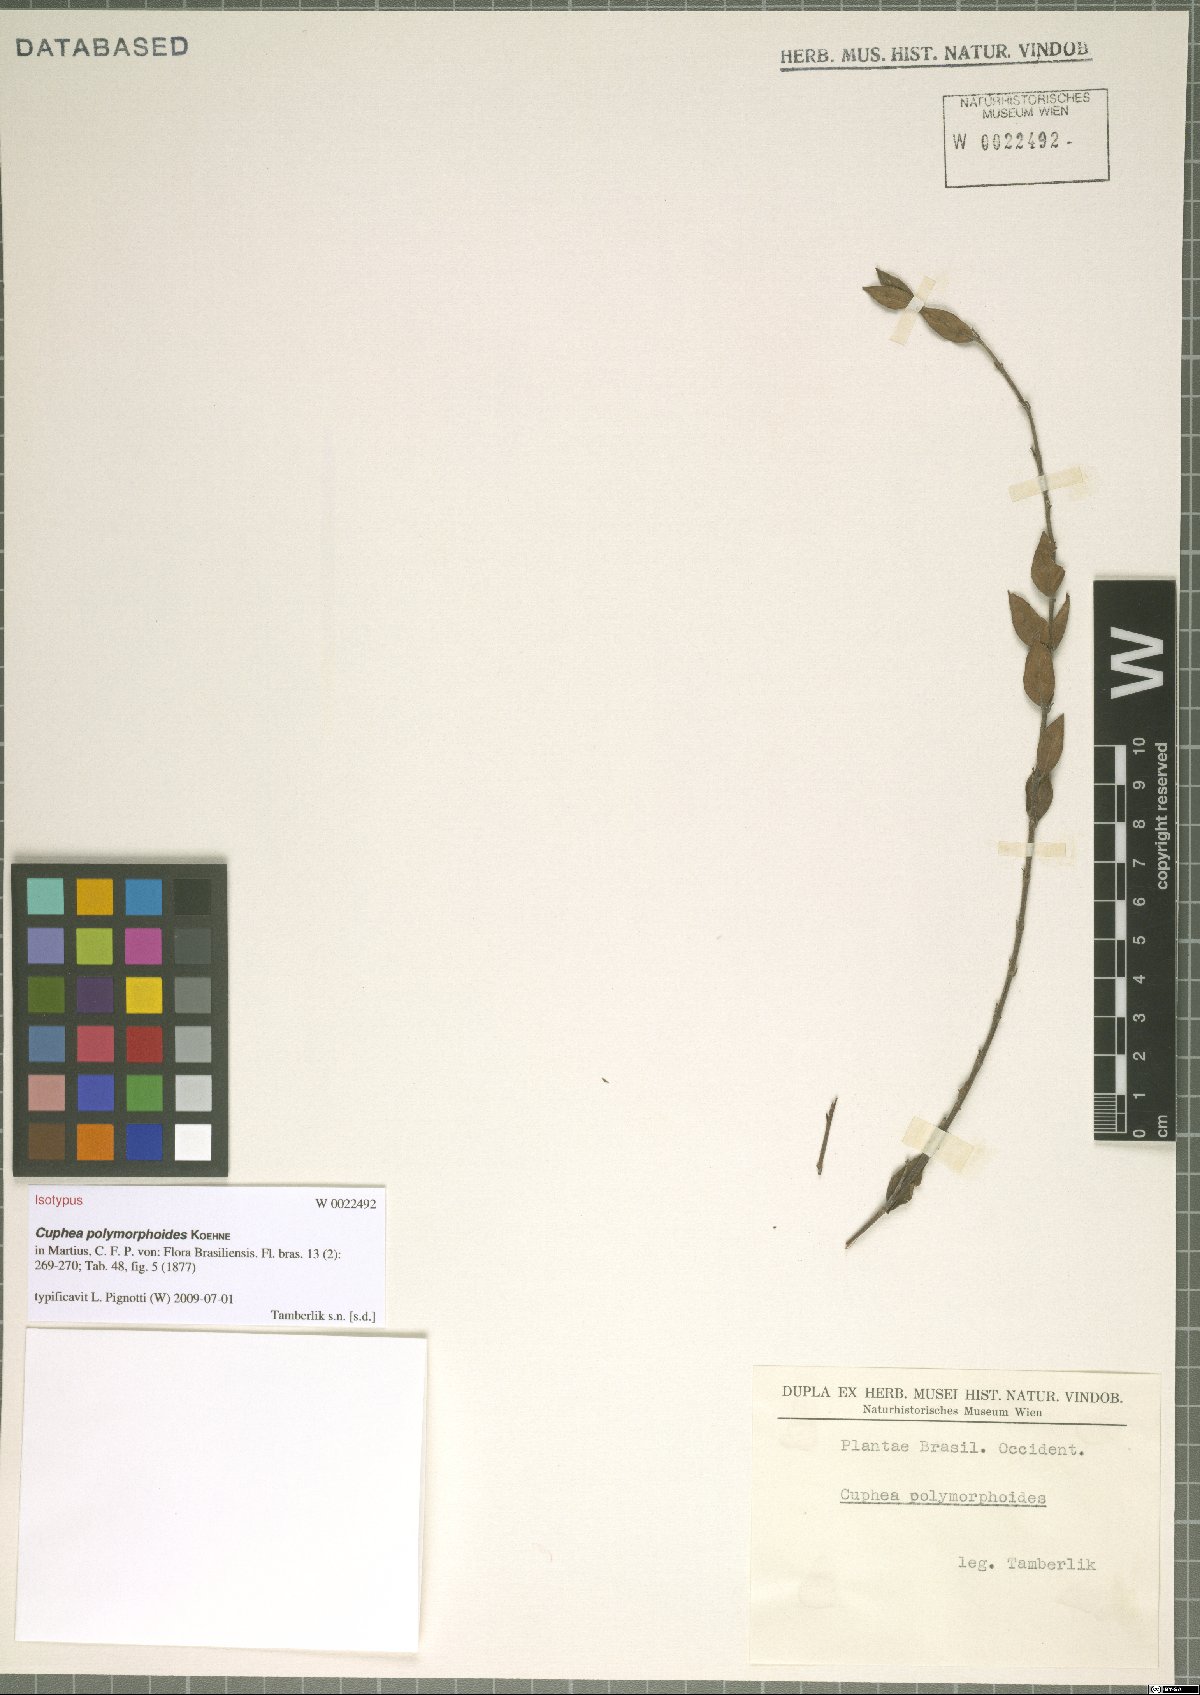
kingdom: Plantae
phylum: Tracheophyta
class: Magnoliopsida
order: Myrtales
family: Lythraceae
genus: Cuphea
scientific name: Cuphea spermacoce
